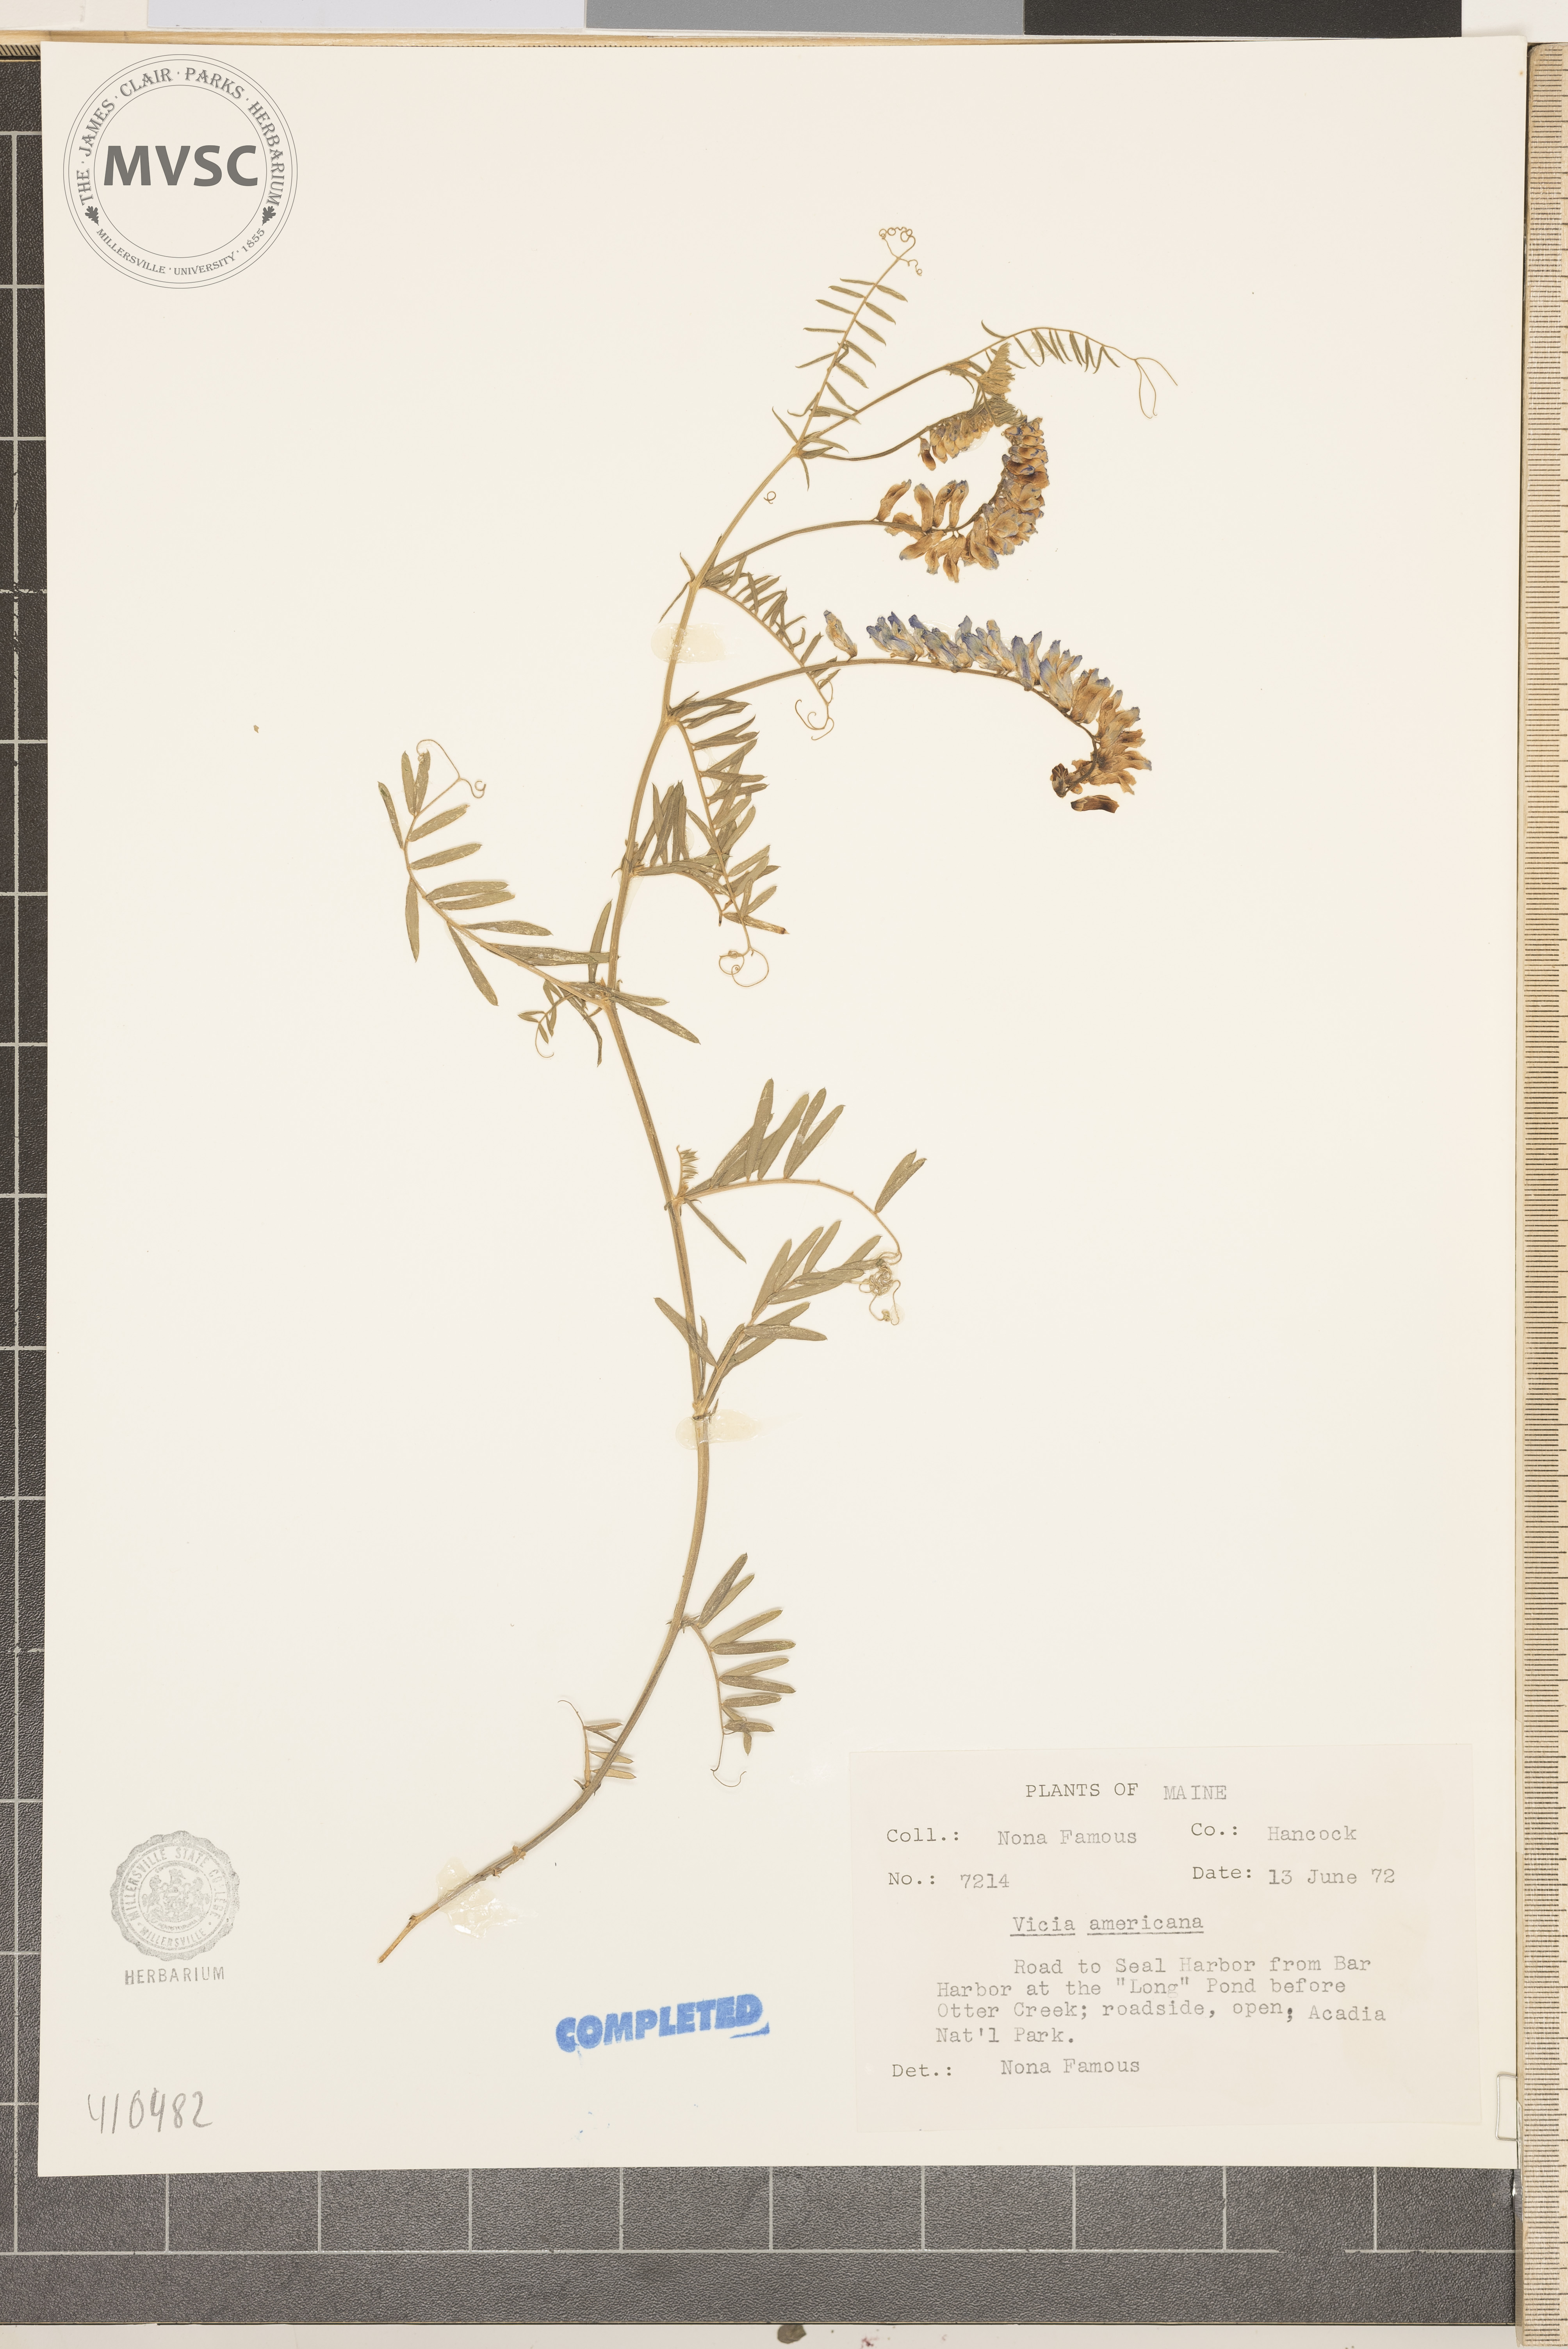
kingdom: Plantae
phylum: Tracheophyta
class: Magnoliopsida
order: Fabales
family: Fabaceae
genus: Vicia
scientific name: Vicia cracca
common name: Bird vetch
